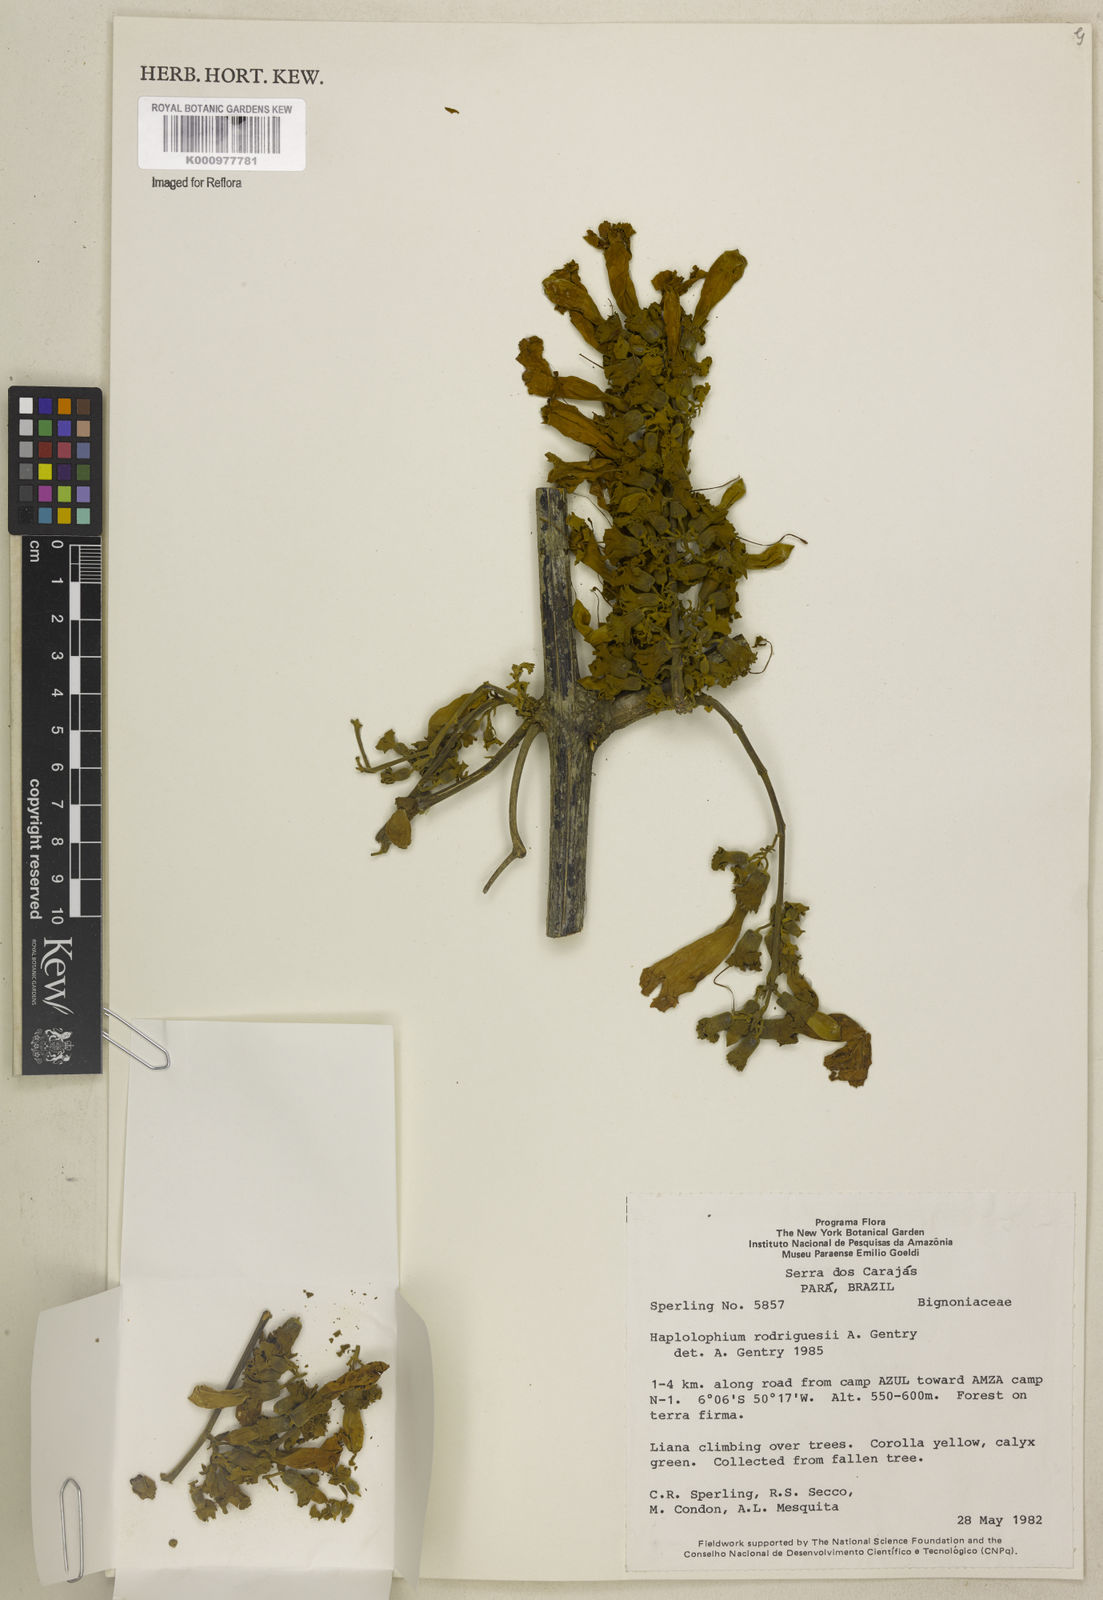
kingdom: Plantae
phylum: Tracheophyta
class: Magnoliopsida
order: Lamiales
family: Bignoniaceae
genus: Amphilophium
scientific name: Amphilophium rodriguesii
